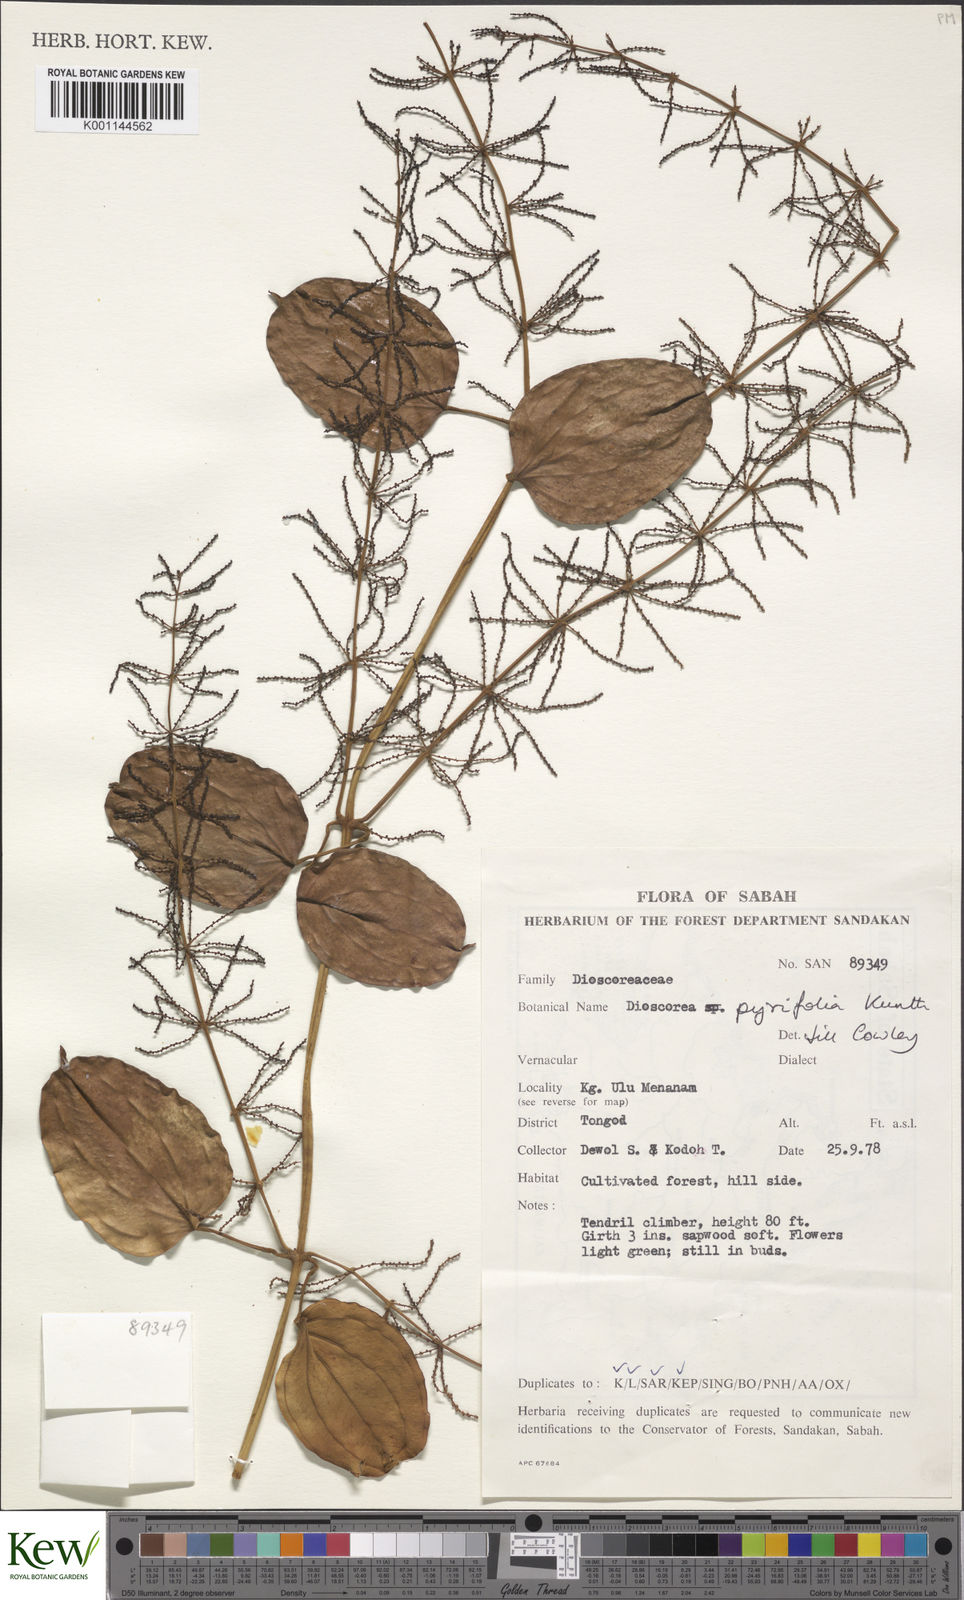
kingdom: Plantae
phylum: Tracheophyta
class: Liliopsida
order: Dioscoreales
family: Dioscoreaceae
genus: Dioscorea
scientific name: Dioscorea pyrifolia
